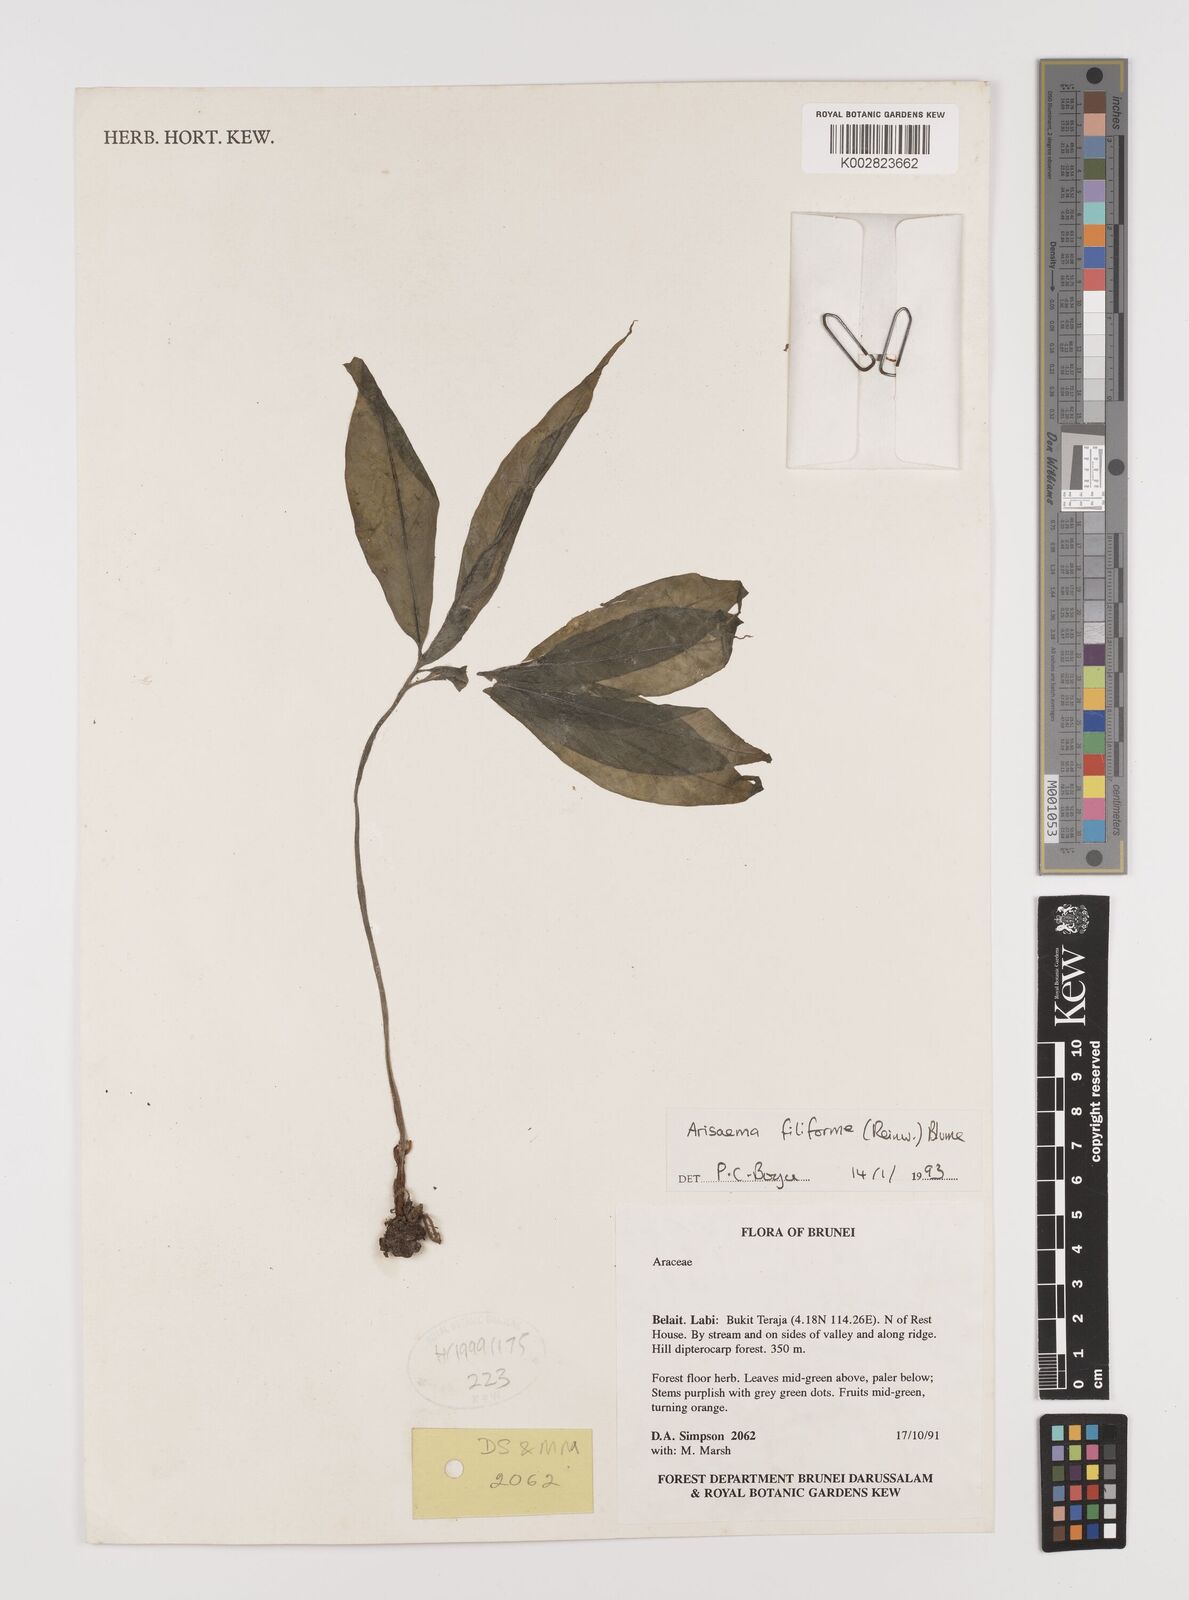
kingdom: Plantae
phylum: Tracheophyta
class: Liliopsida
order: Alismatales
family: Araceae
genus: Arisaema
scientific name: Arisaema filiforme
